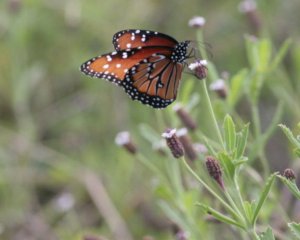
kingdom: Animalia
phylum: Arthropoda
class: Insecta
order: Lepidoptera
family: Nymphalidae
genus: Danaus
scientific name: Danaus gilippus
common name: Queen
